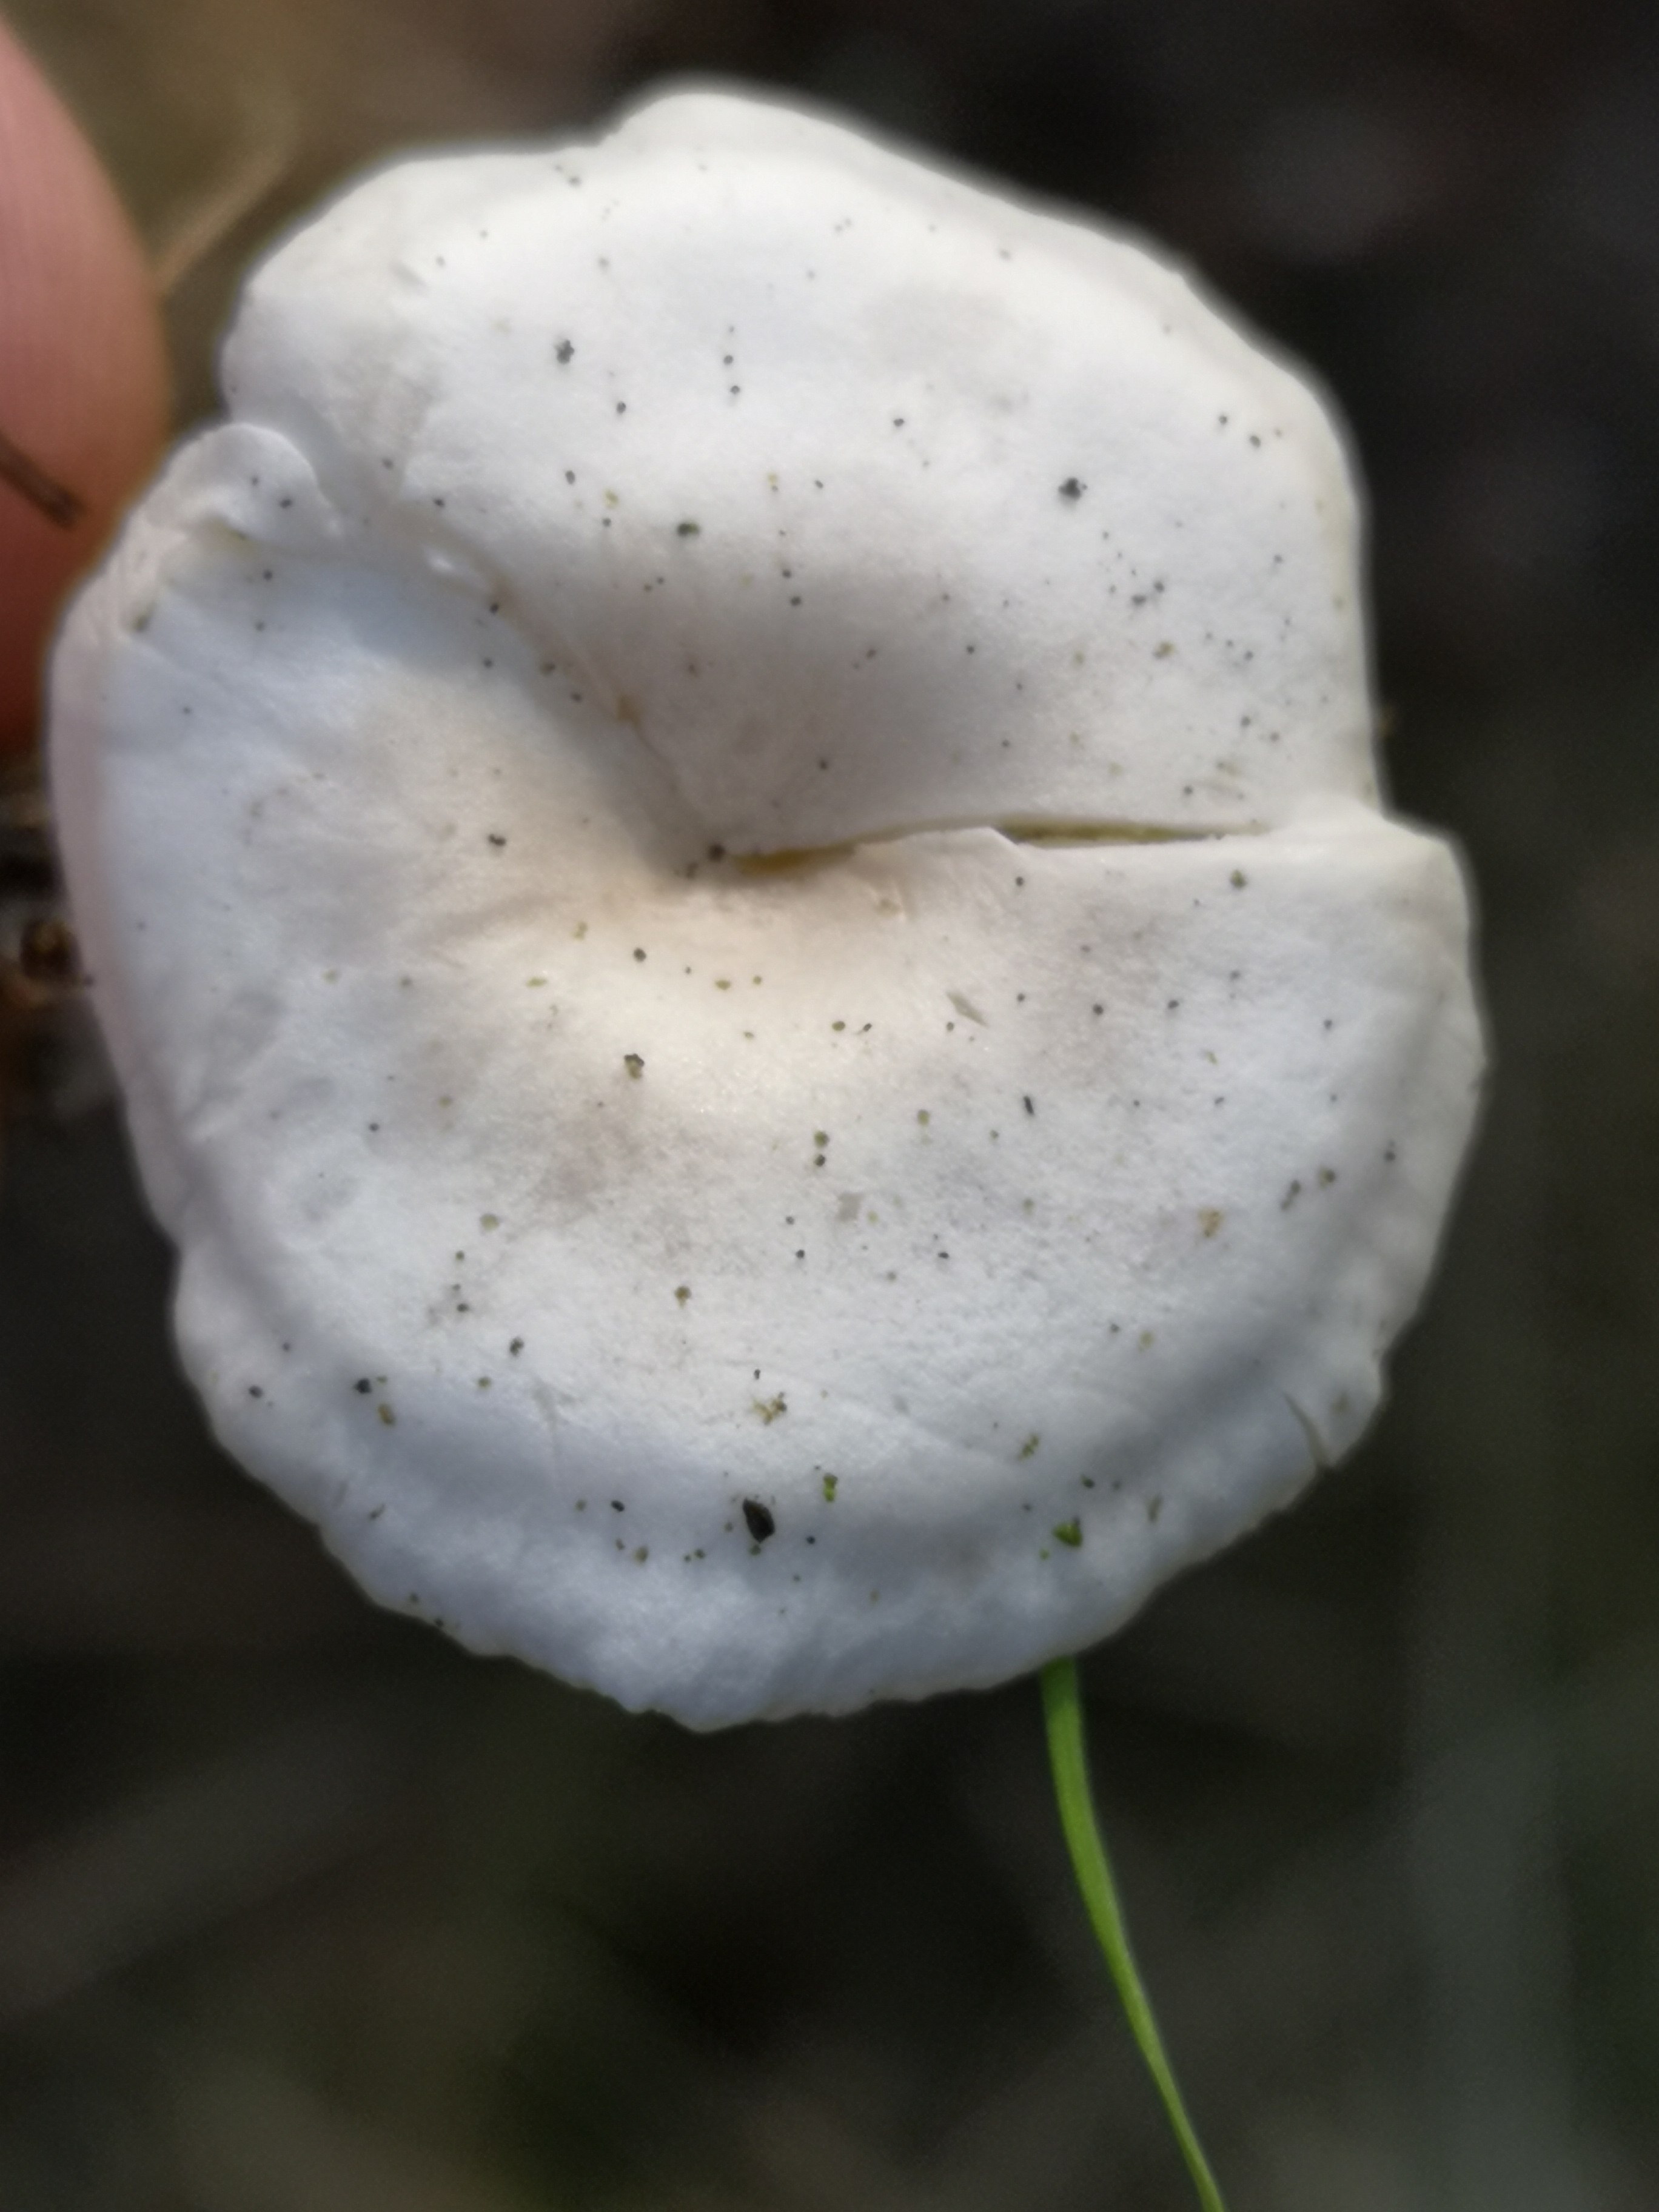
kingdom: Fungi
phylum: Basidiomycota
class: Agaricomycetes
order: Agaricales
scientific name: Agaricales
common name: champignonordenen
